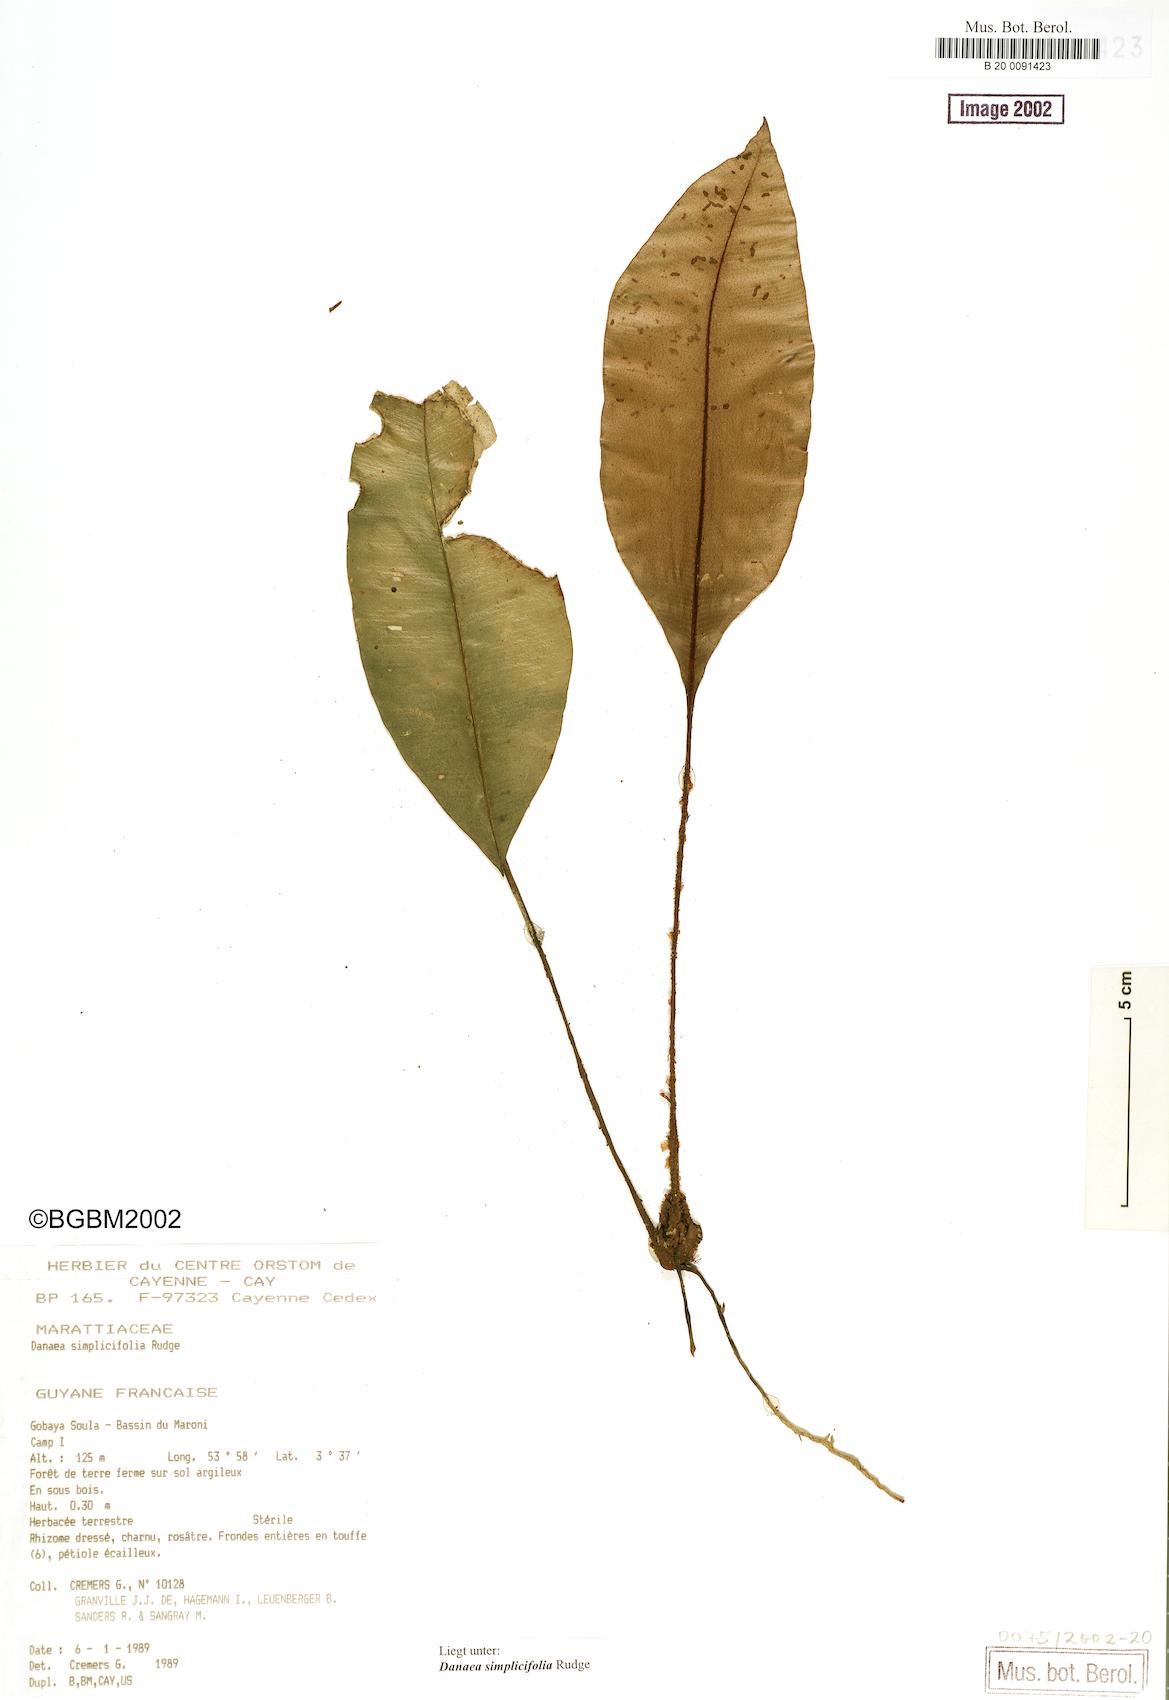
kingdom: Plantae
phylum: Tracheophyta
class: Polypodiopsida
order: Marattiales
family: Marattiaceae
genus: Danaea
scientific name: Danaea simplicifolia
